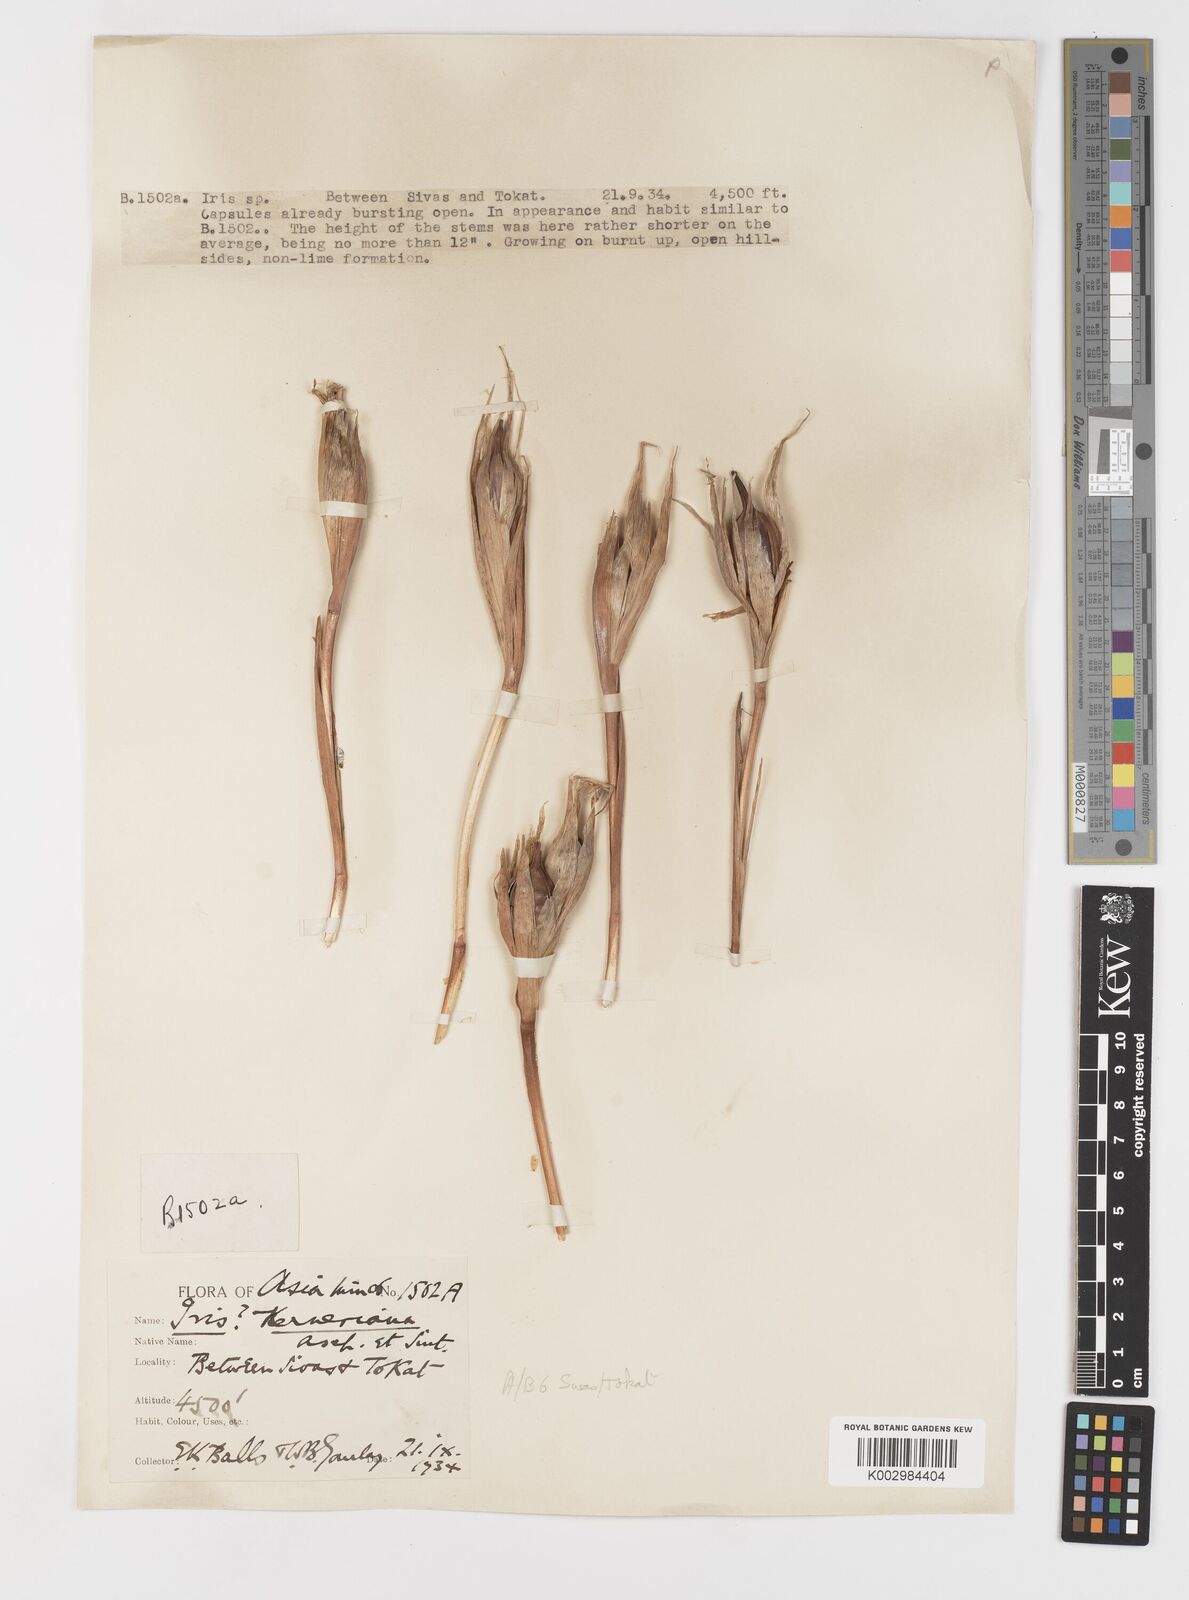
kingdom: Plantae
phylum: Tracheophyta
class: Liliopsida
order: Asparagales
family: Iridaceae
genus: Iris
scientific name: Iris haussknechtii
